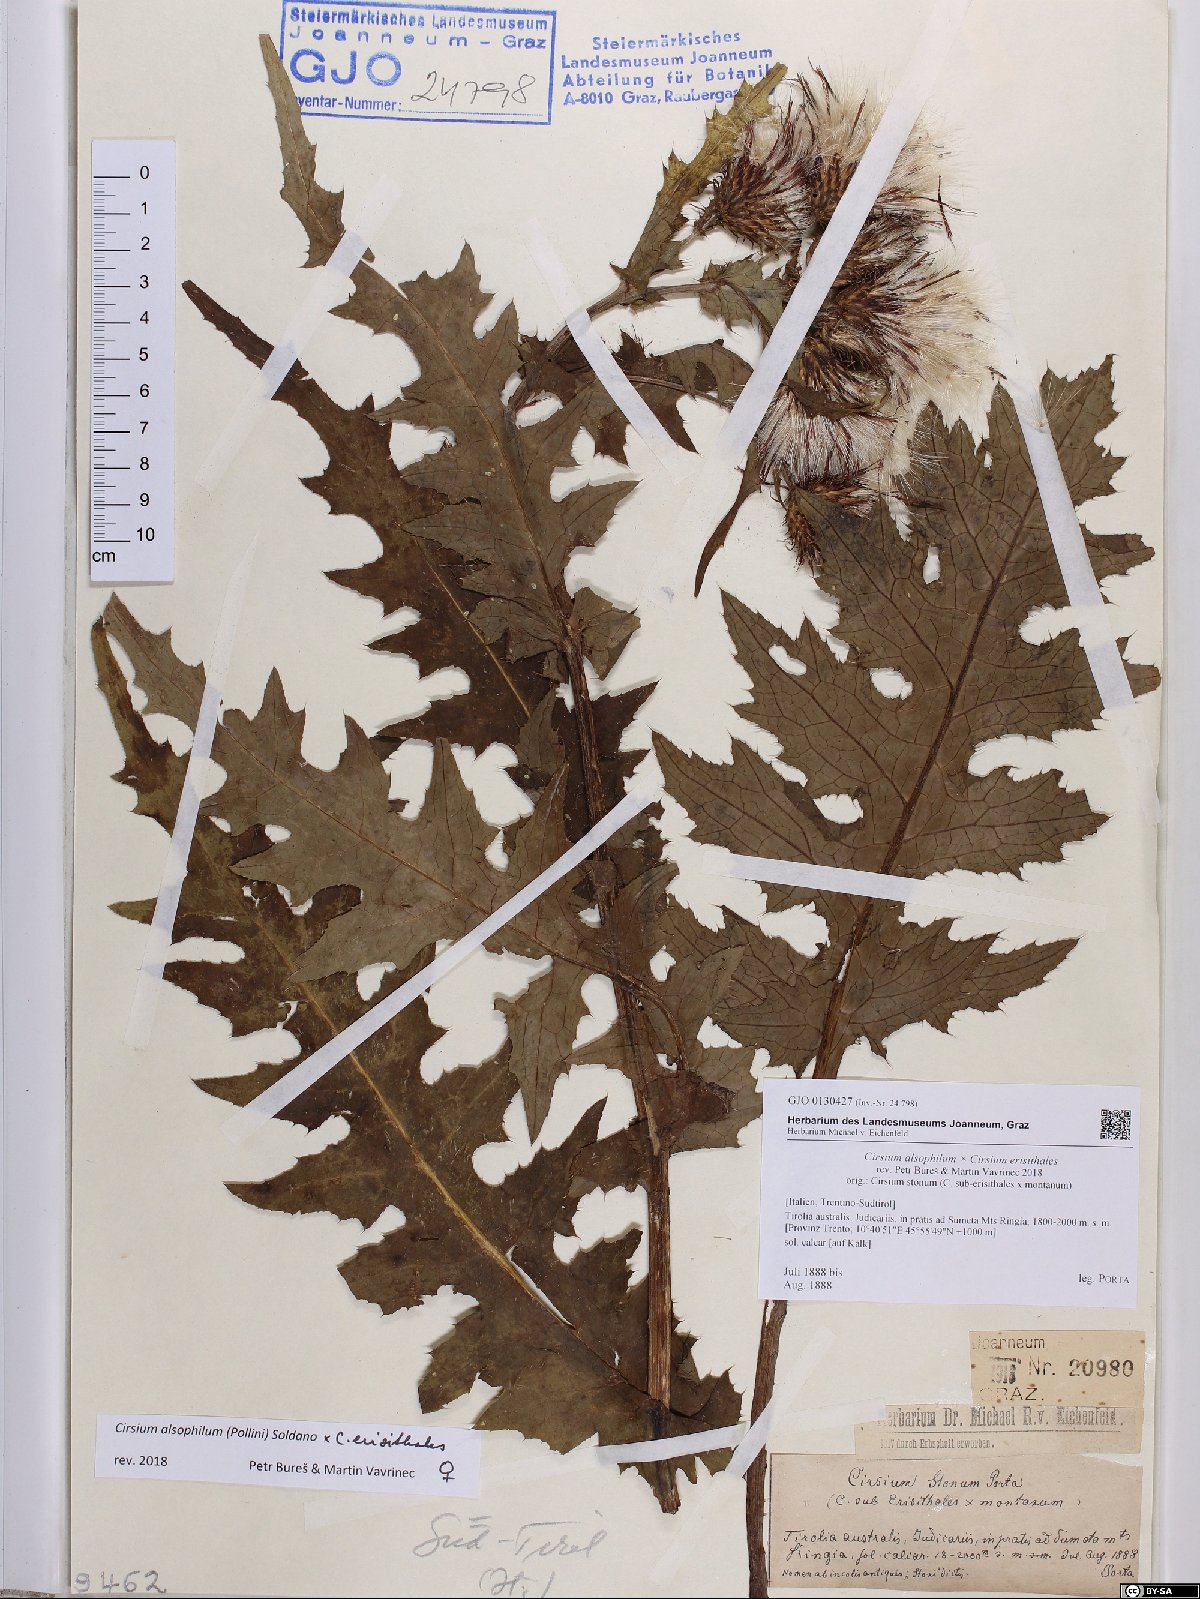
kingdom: Plantae
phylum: Tracheophyta
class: Magnoliopsida
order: Asterales
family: Asteraceae
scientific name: Asteraceae
